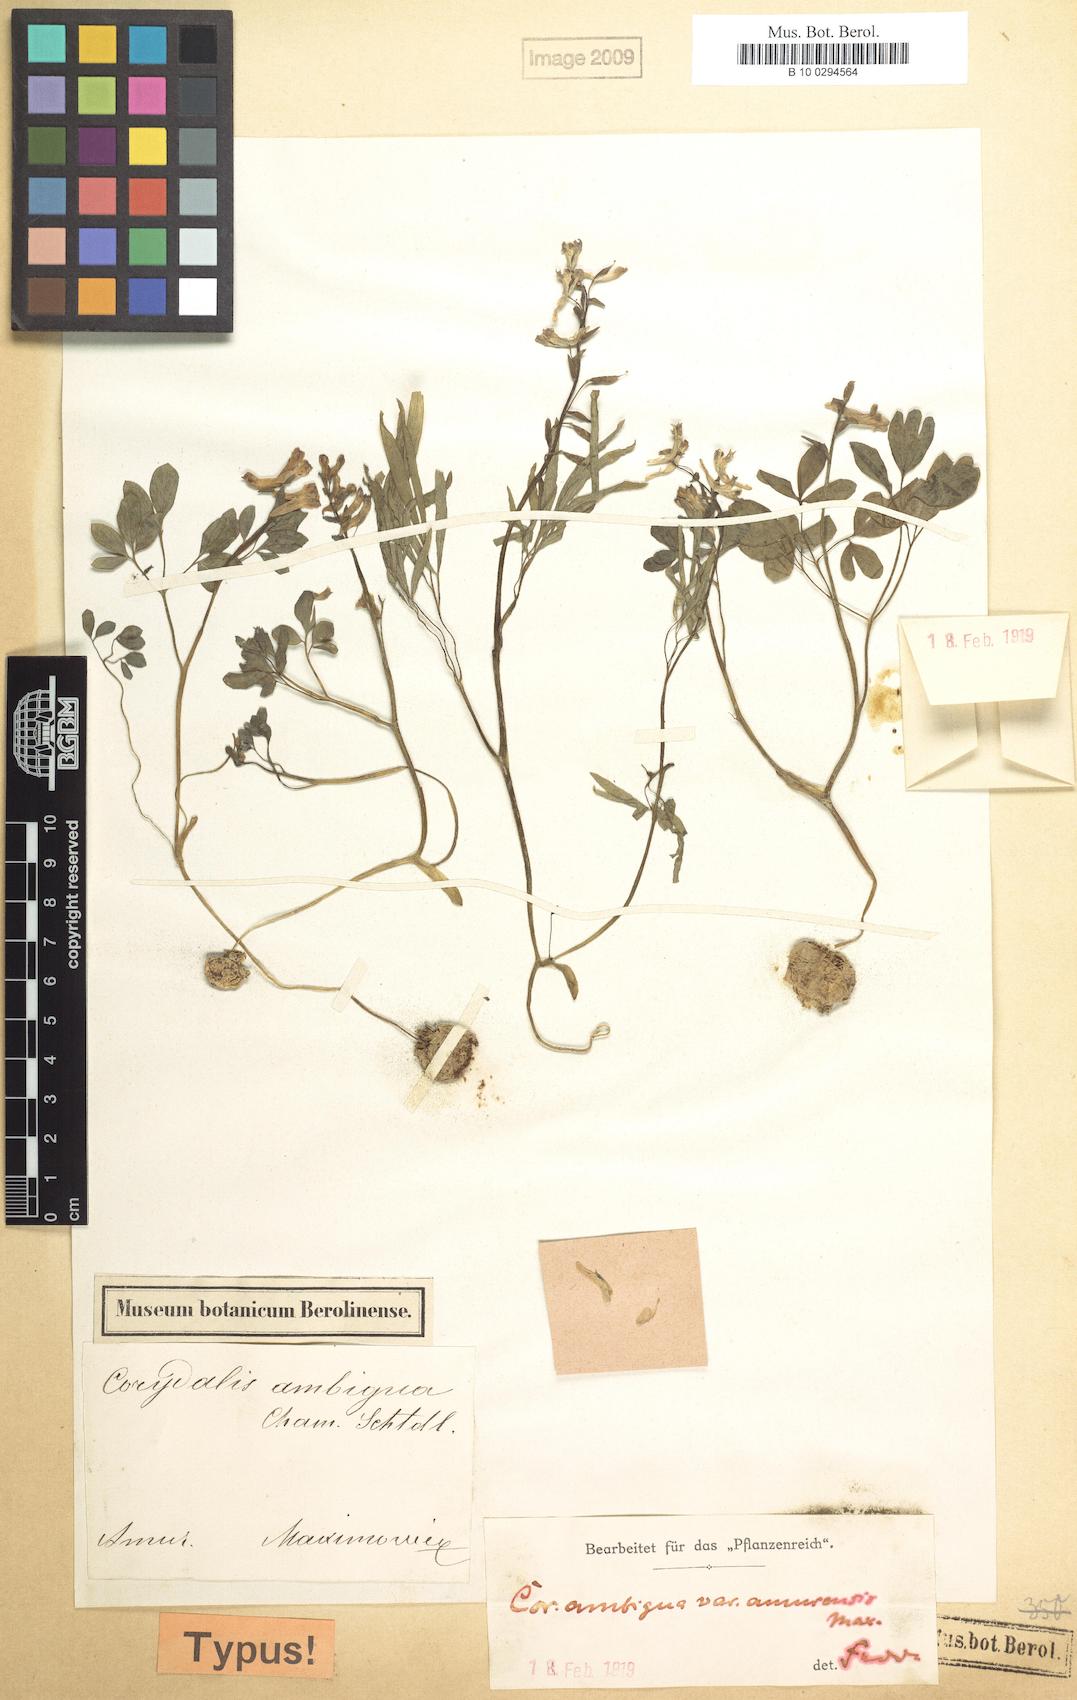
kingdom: Plantae
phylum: Tracheophyta
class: Magnoliopsida
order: Ranunculales
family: Papaveraceae
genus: Corydalis
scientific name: Corydalis fumariifolia
